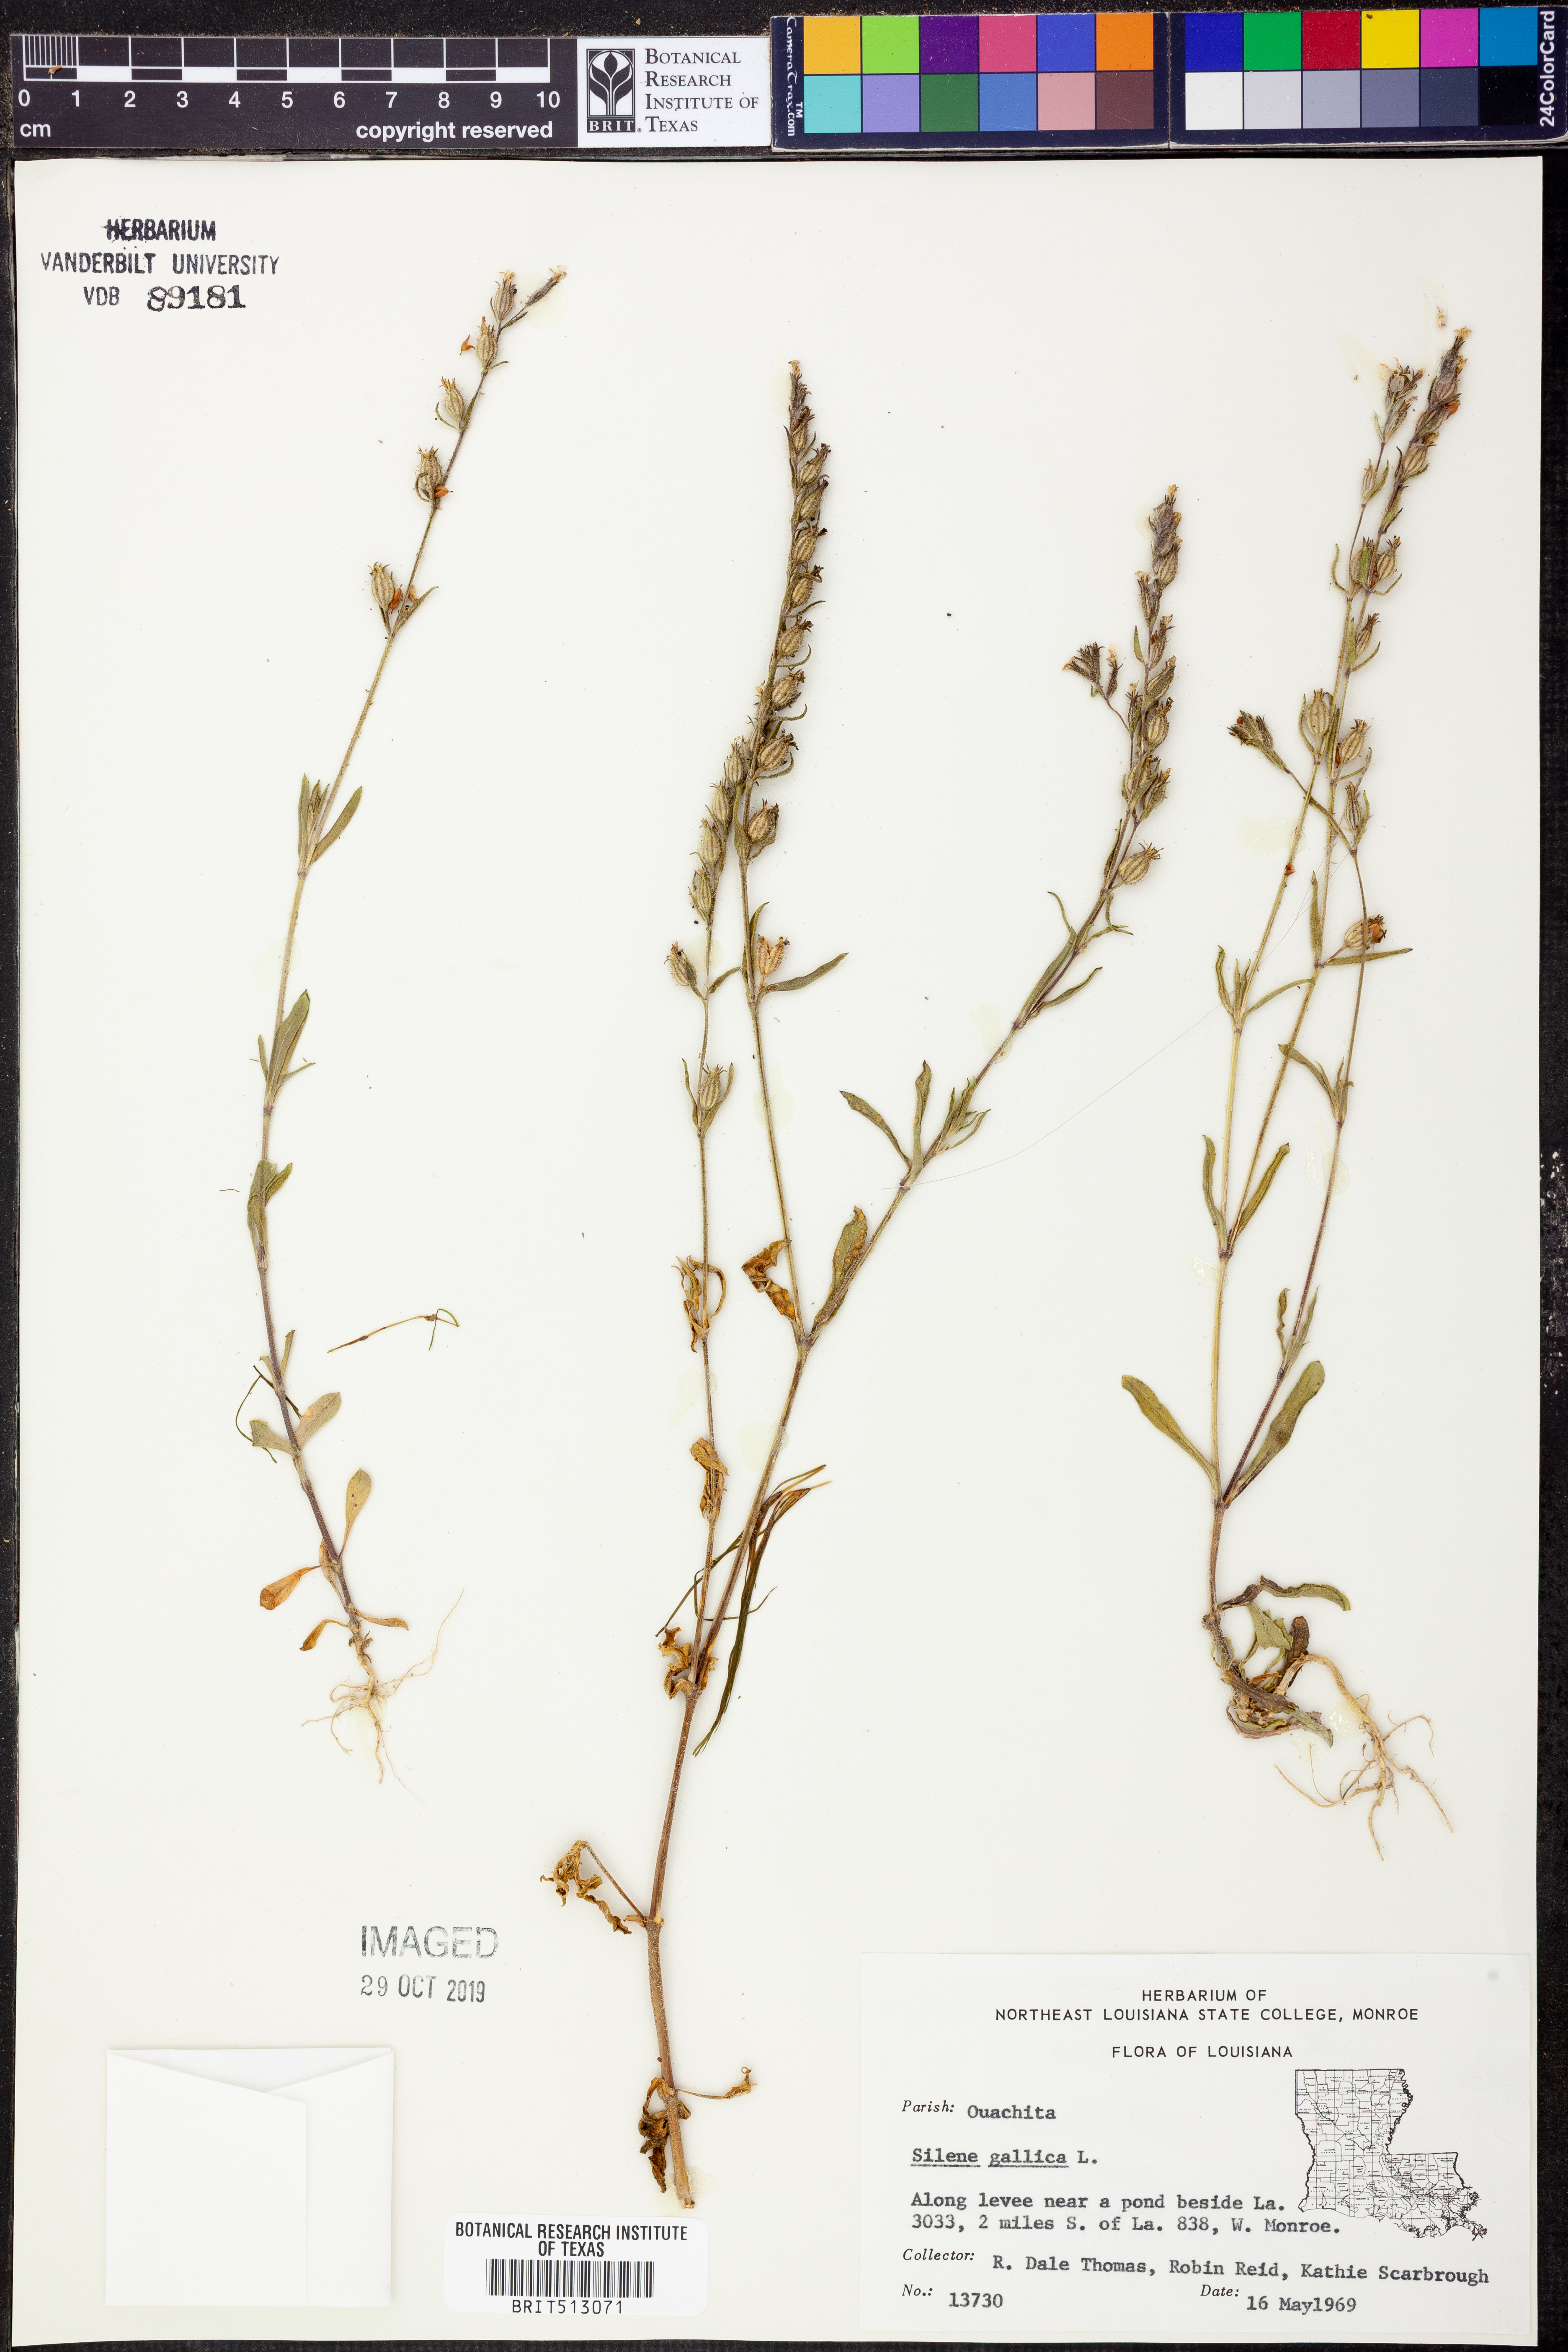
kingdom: Plantae
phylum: Tracheophyta
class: Magnoliopsida
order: Caryophyllales
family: Caryophyllaceae
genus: Silene
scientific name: Silene gallica
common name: Small-flowered catchfly
